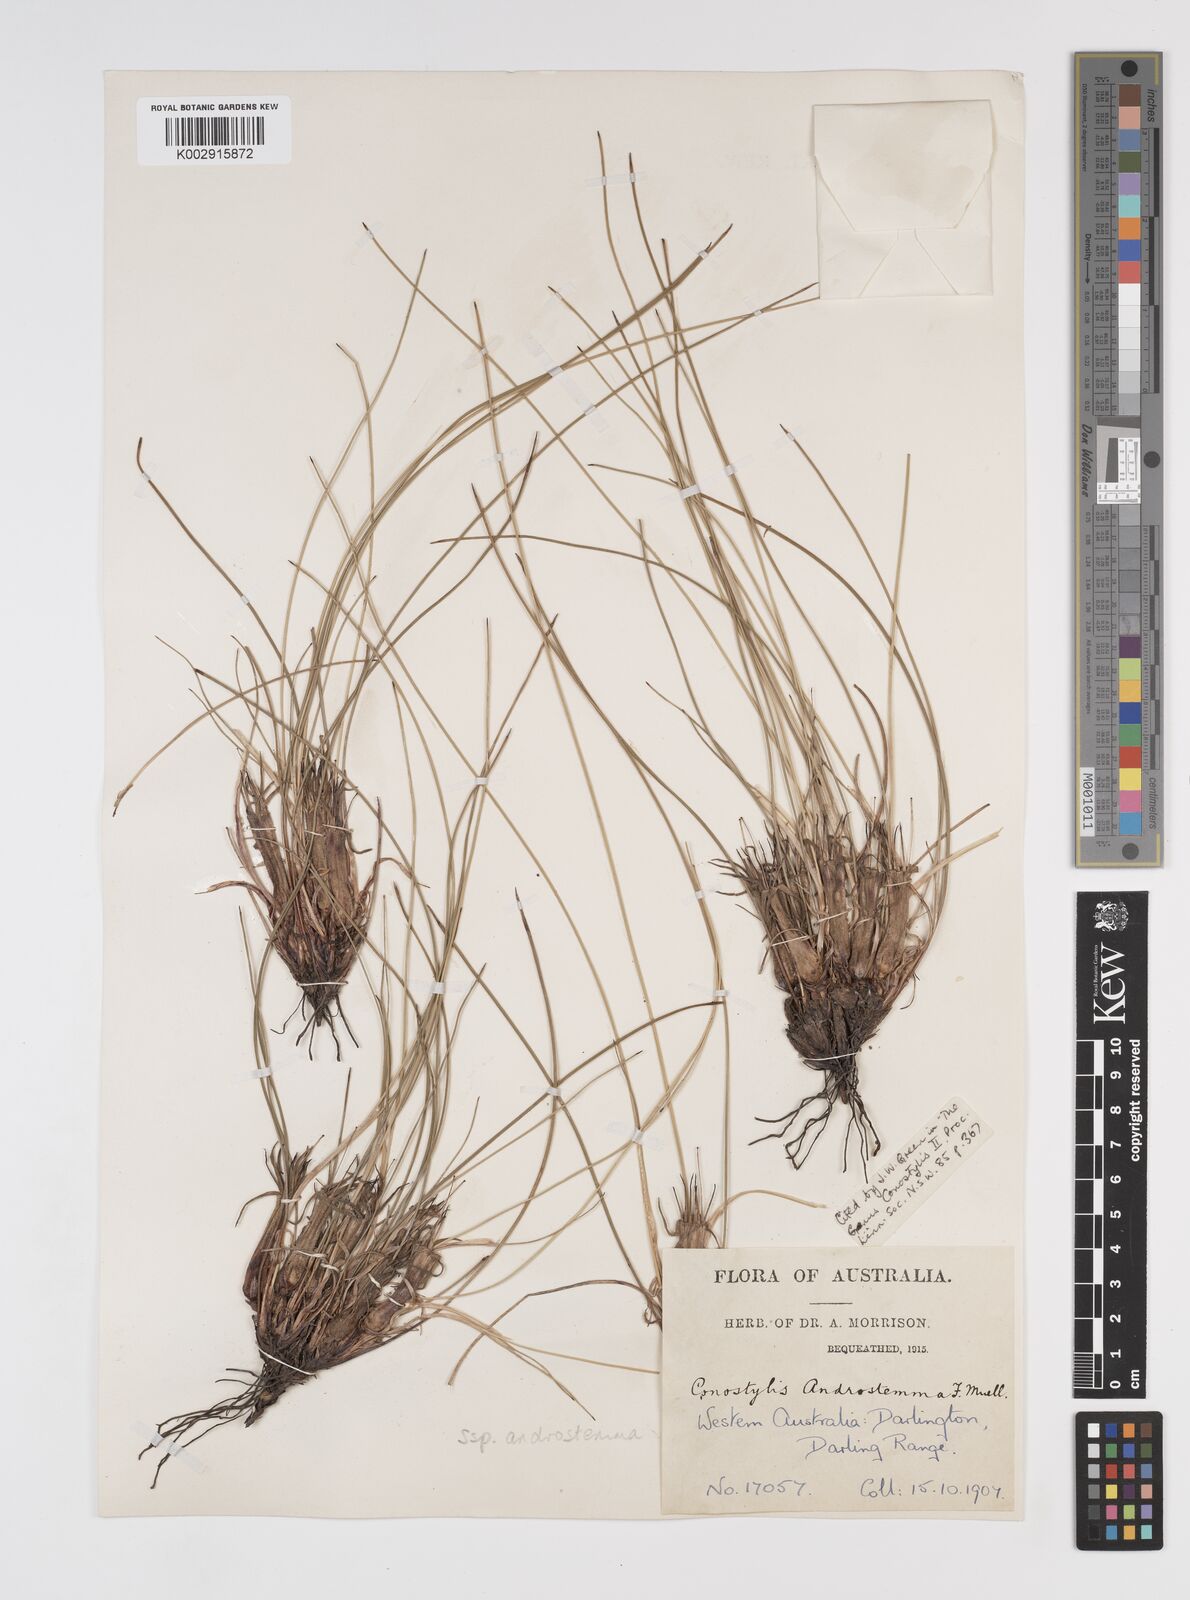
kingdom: Plantae
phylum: Tracheophyta
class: Liliopsida
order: Commelinales
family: Haemodoraceae
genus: Conostylis
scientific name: Conostylis androstemma
